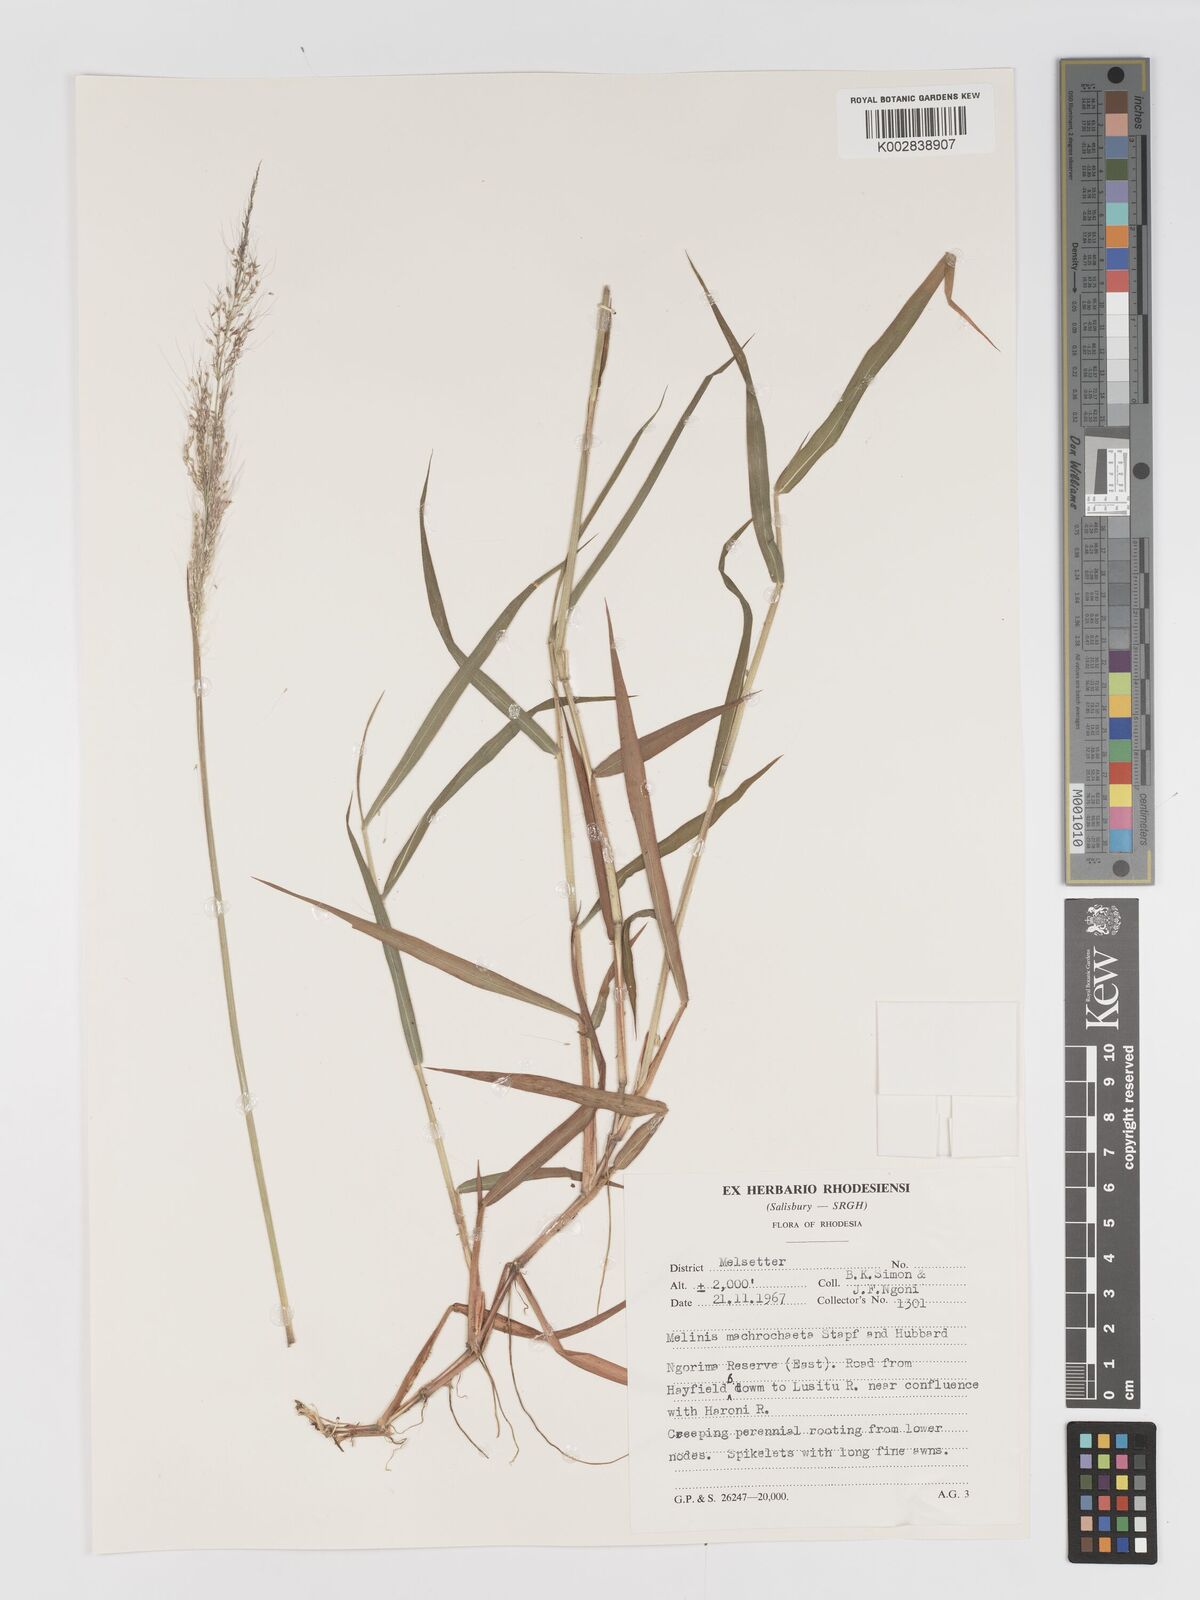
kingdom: Plantae
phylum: Tracheophyta
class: Liliopsida
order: Poales
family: Poaceae
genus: Melinis
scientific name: Melinis macrochaeta
